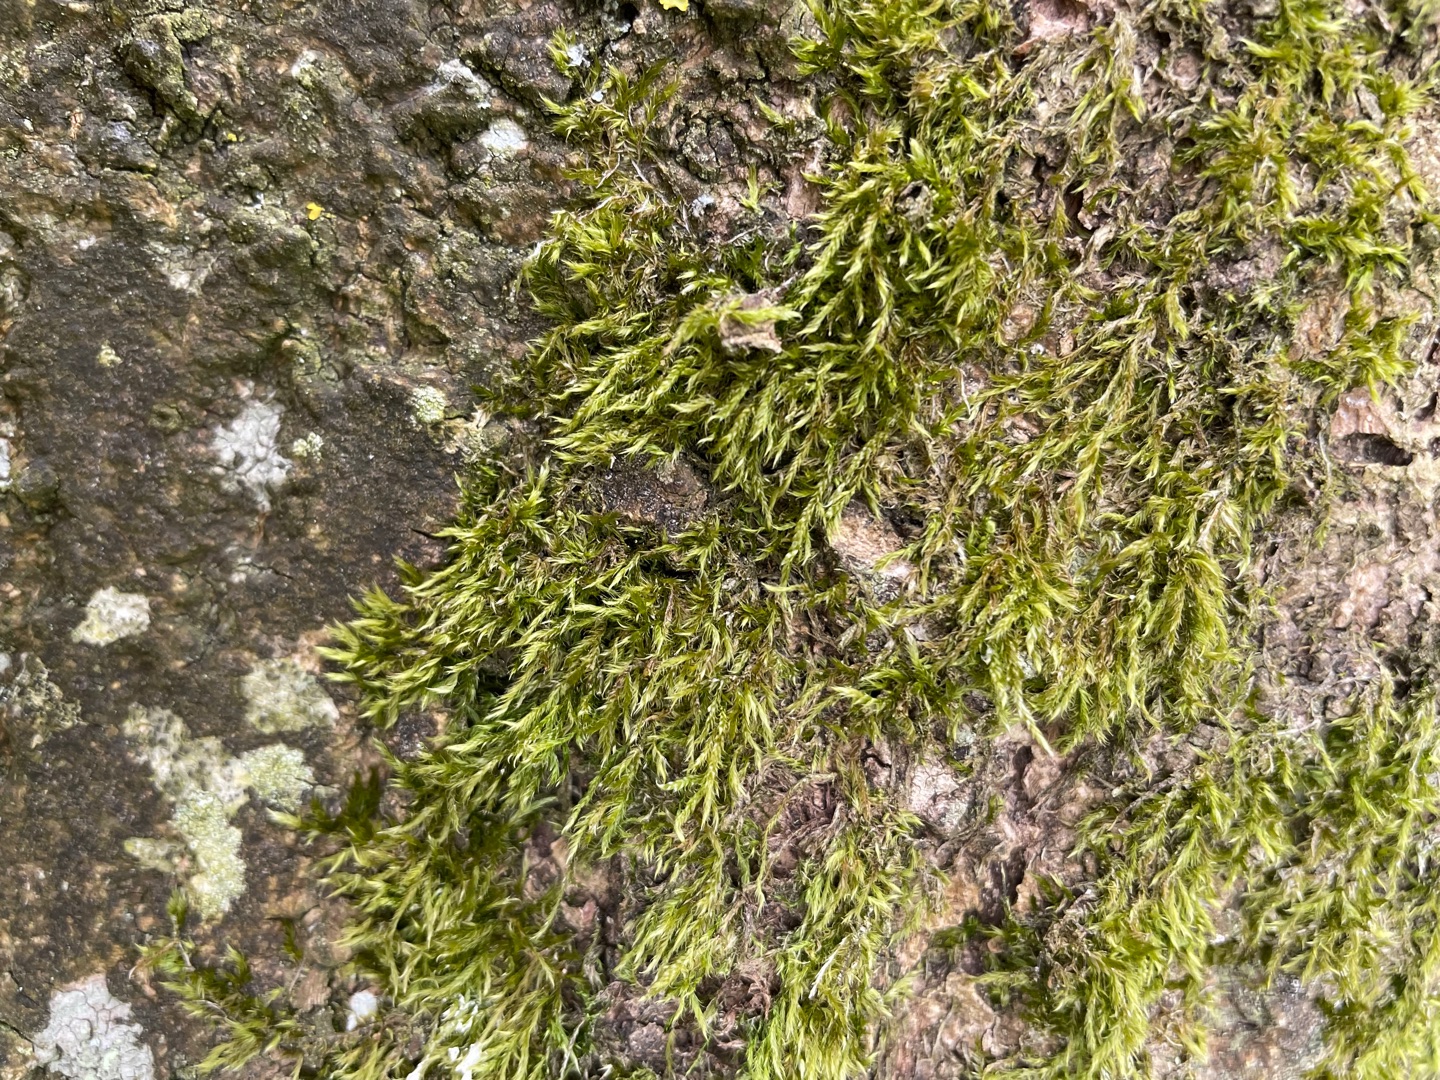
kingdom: Plantae
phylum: Bryophyta
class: Bryopsida
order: Hypnales
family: Hypnaceae
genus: Hypnum
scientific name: Hypnum
